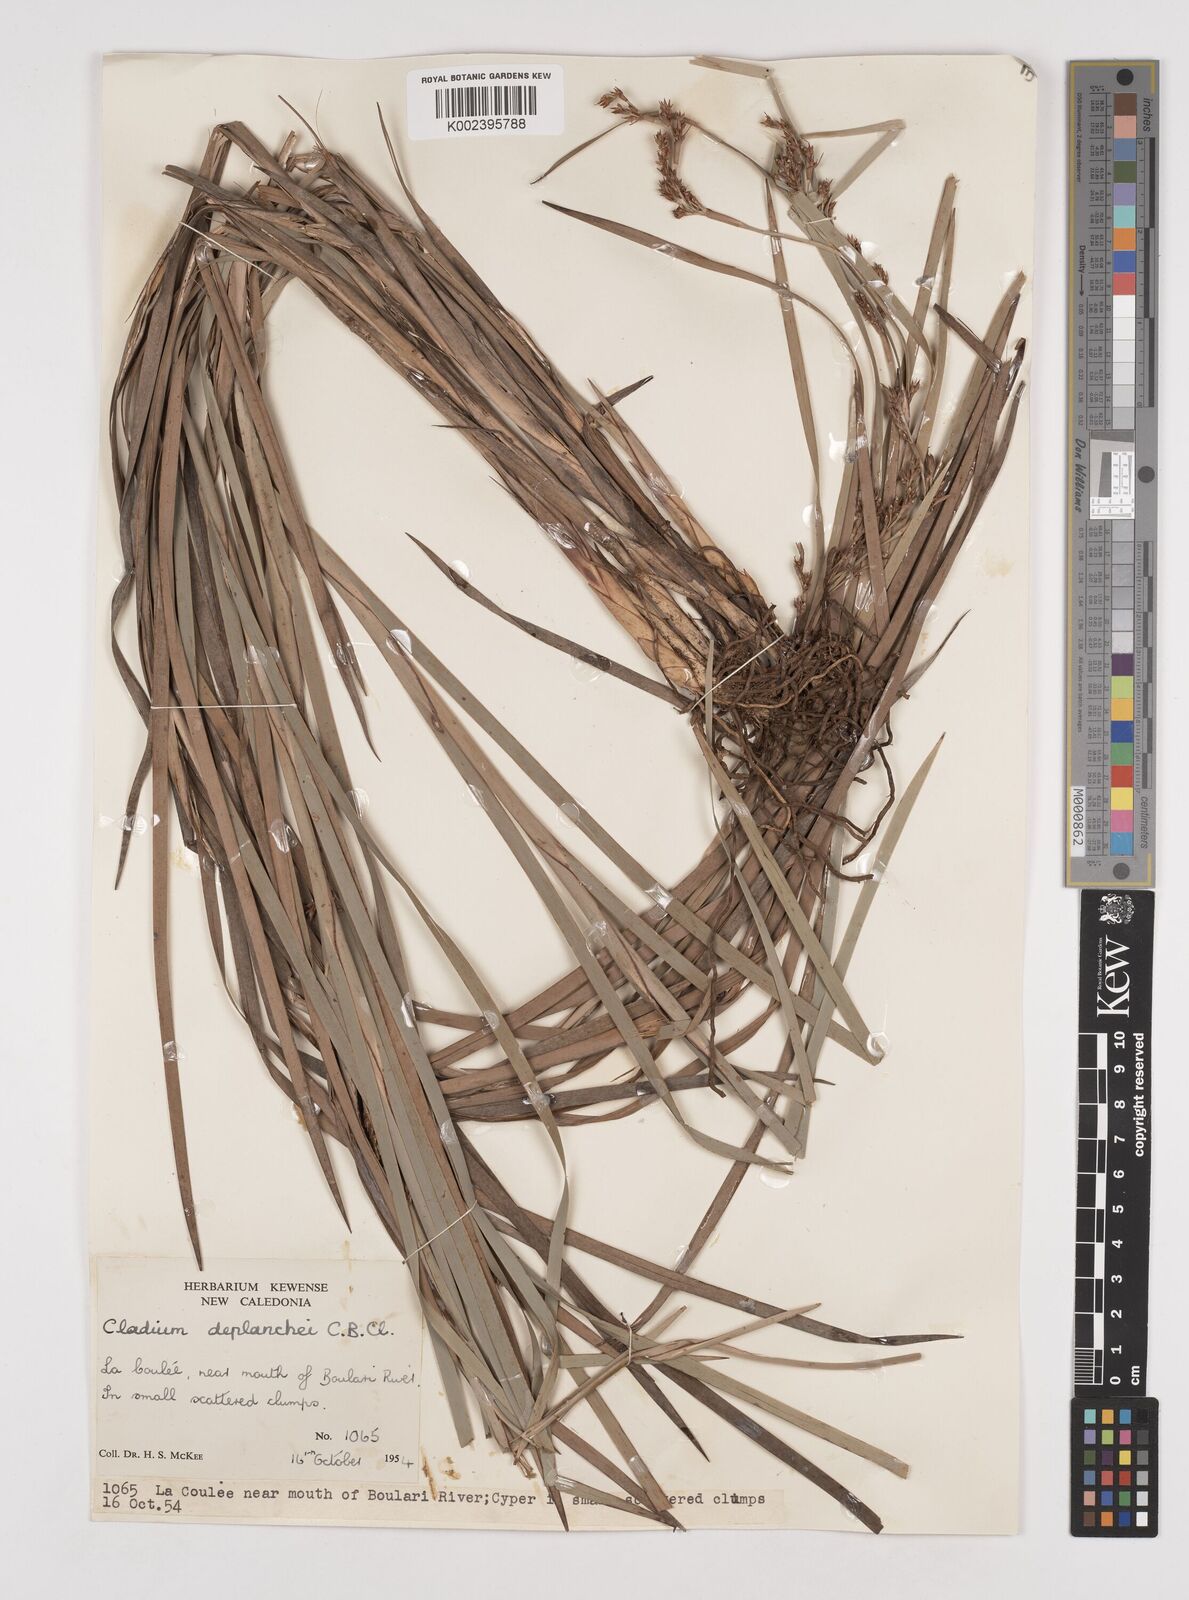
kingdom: Plantae
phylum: Tracheophyta
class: Liliopsida
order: Poales
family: Cyperaceae
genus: Machaerina
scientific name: Machaerina deplanchei
